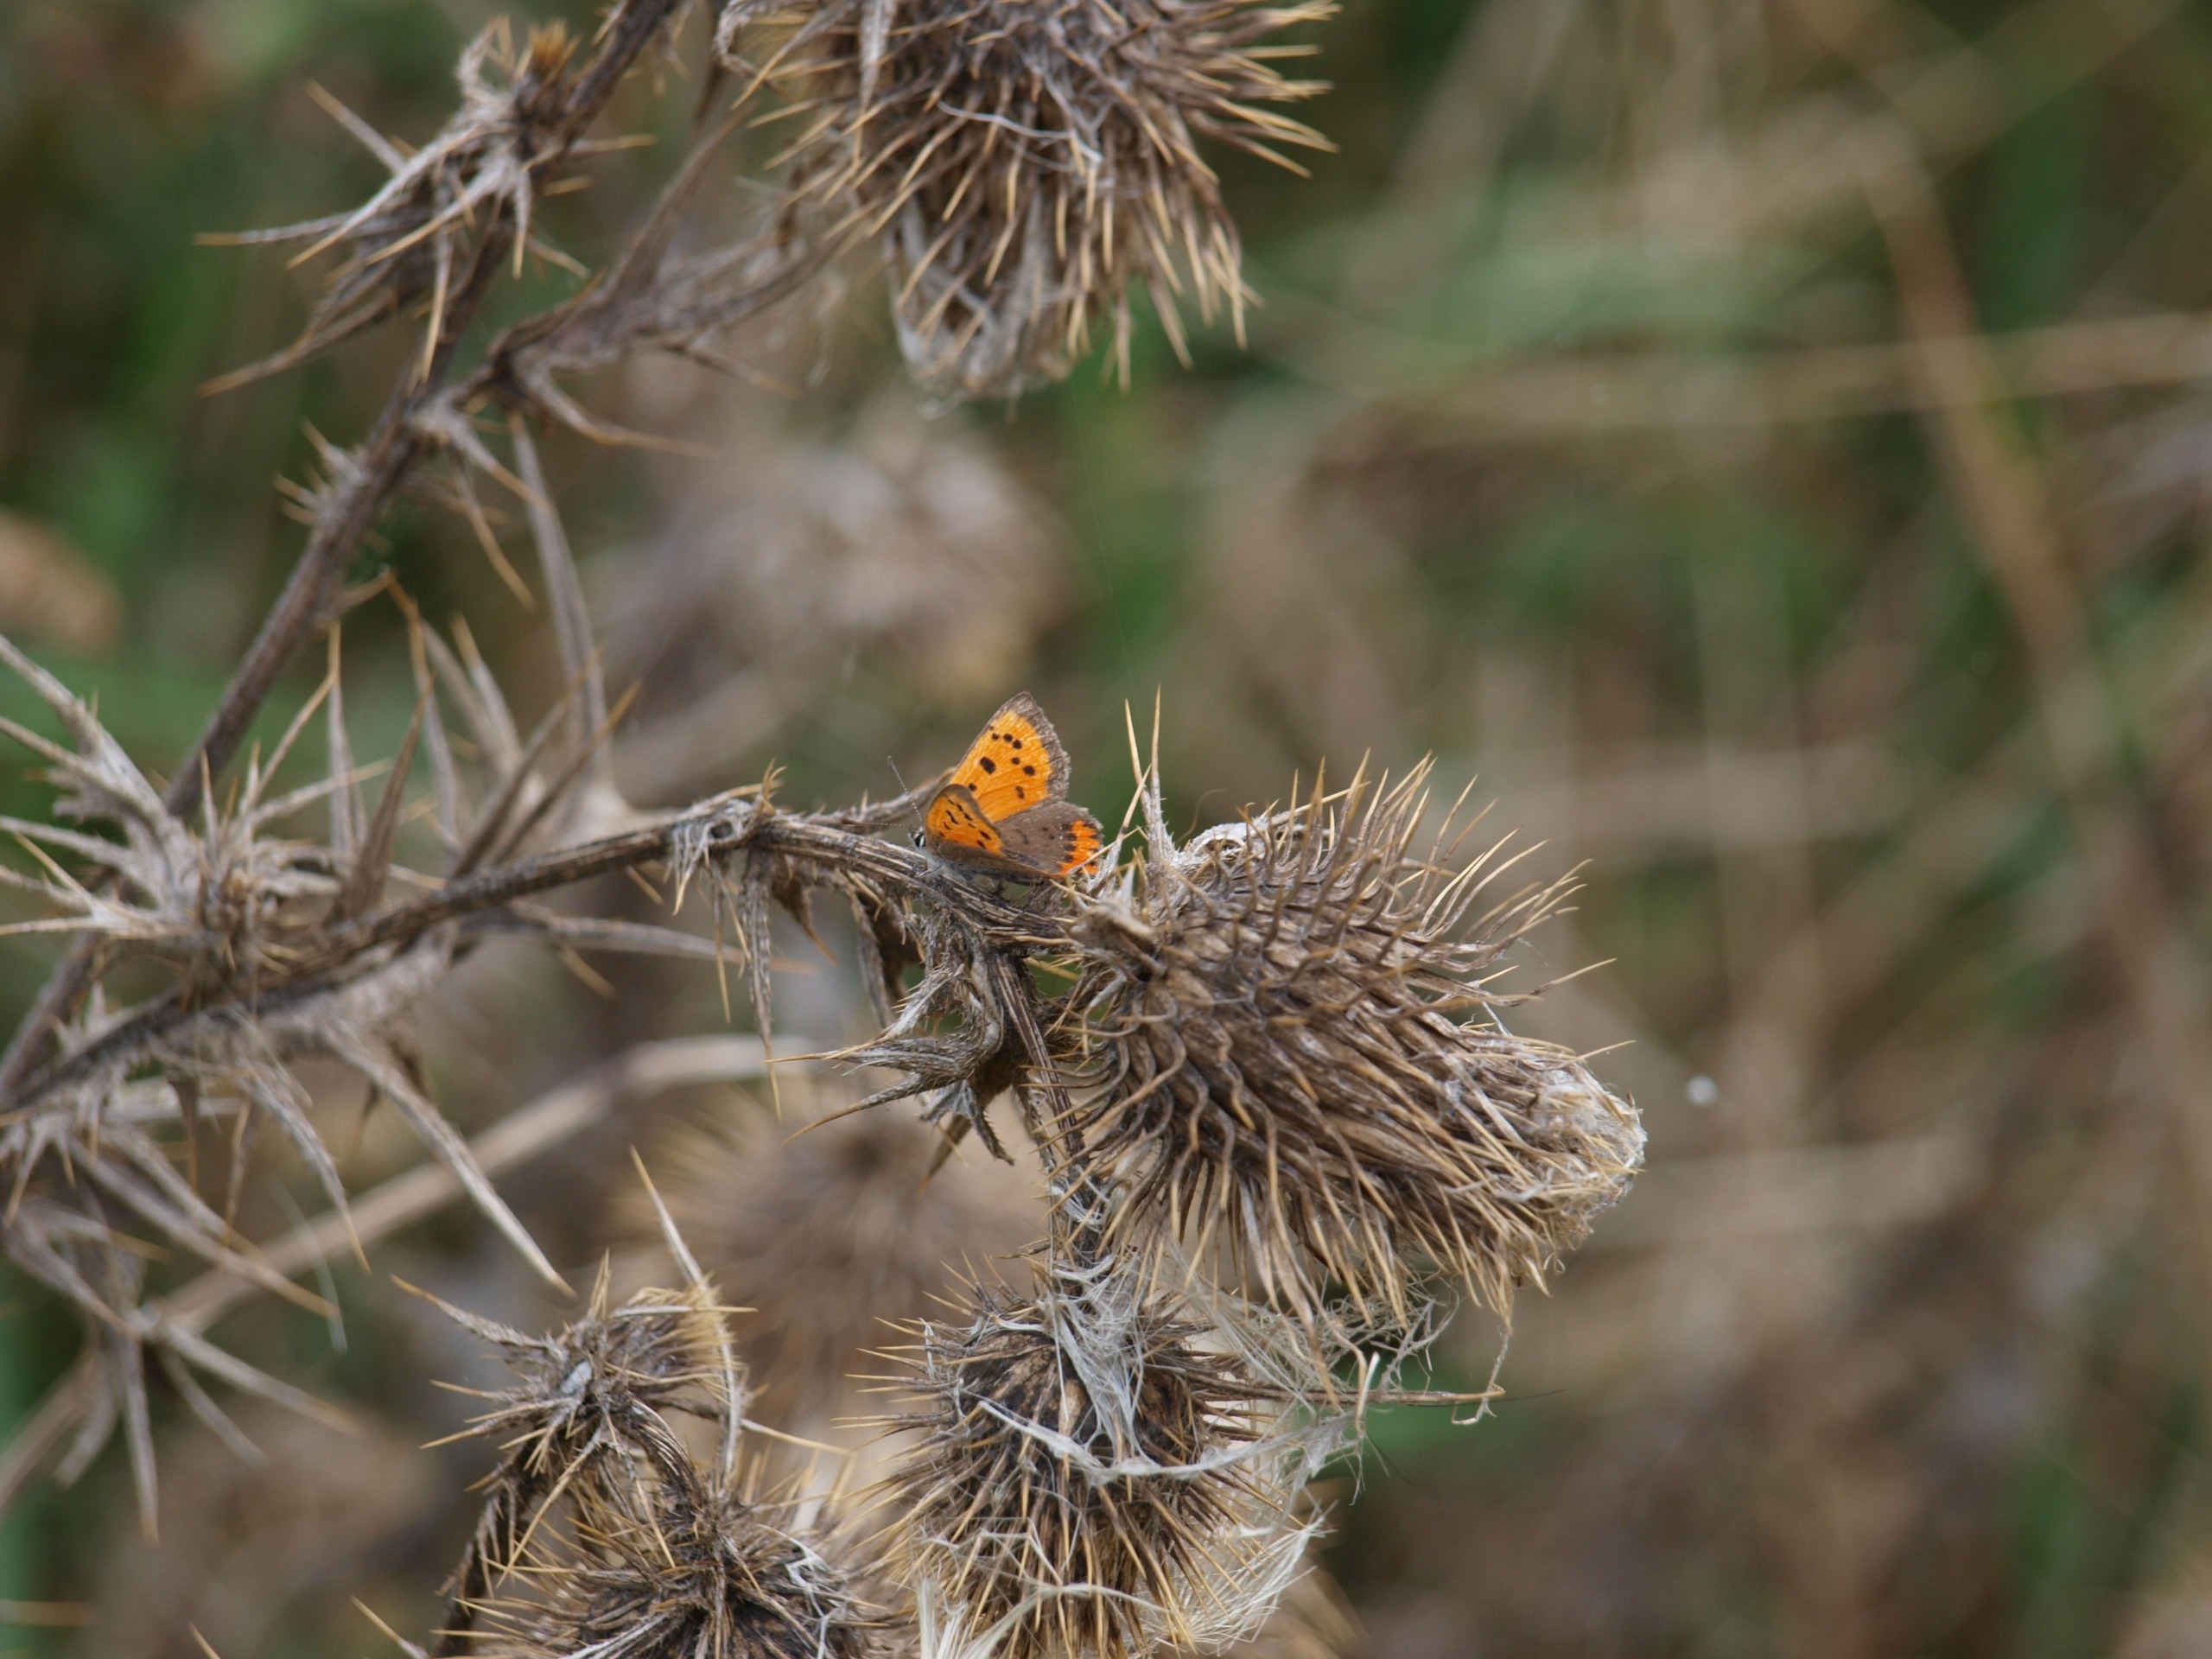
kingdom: Animalia
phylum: Arthropoda
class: Insecta
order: Lepidoptera
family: Lycaenidae
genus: Lycaena
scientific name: Lycaena phlaeas
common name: Lille ildfugl
